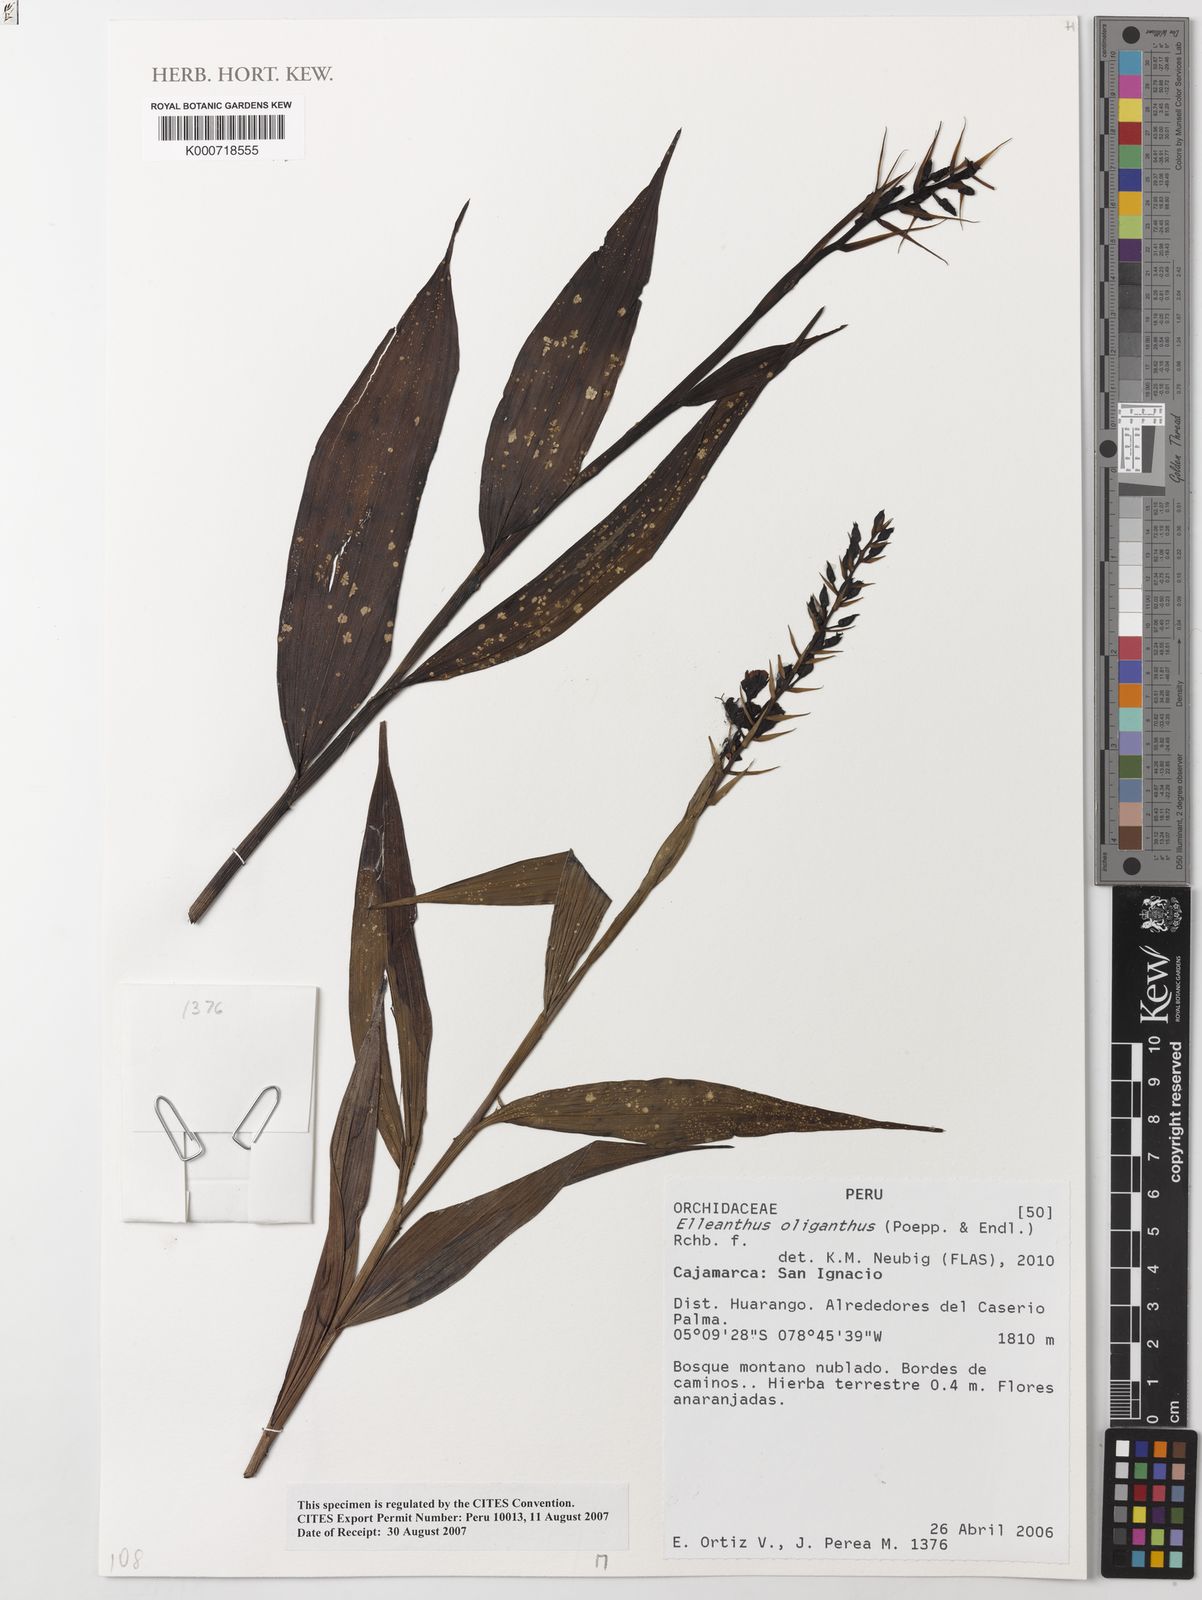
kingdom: Plantae
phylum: Tracheophyta
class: Liliopsida
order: Asparagales
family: Orchidaceae
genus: Elleanthus
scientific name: Elleanthus oliganthus
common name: Sparse blooming elleanthus
